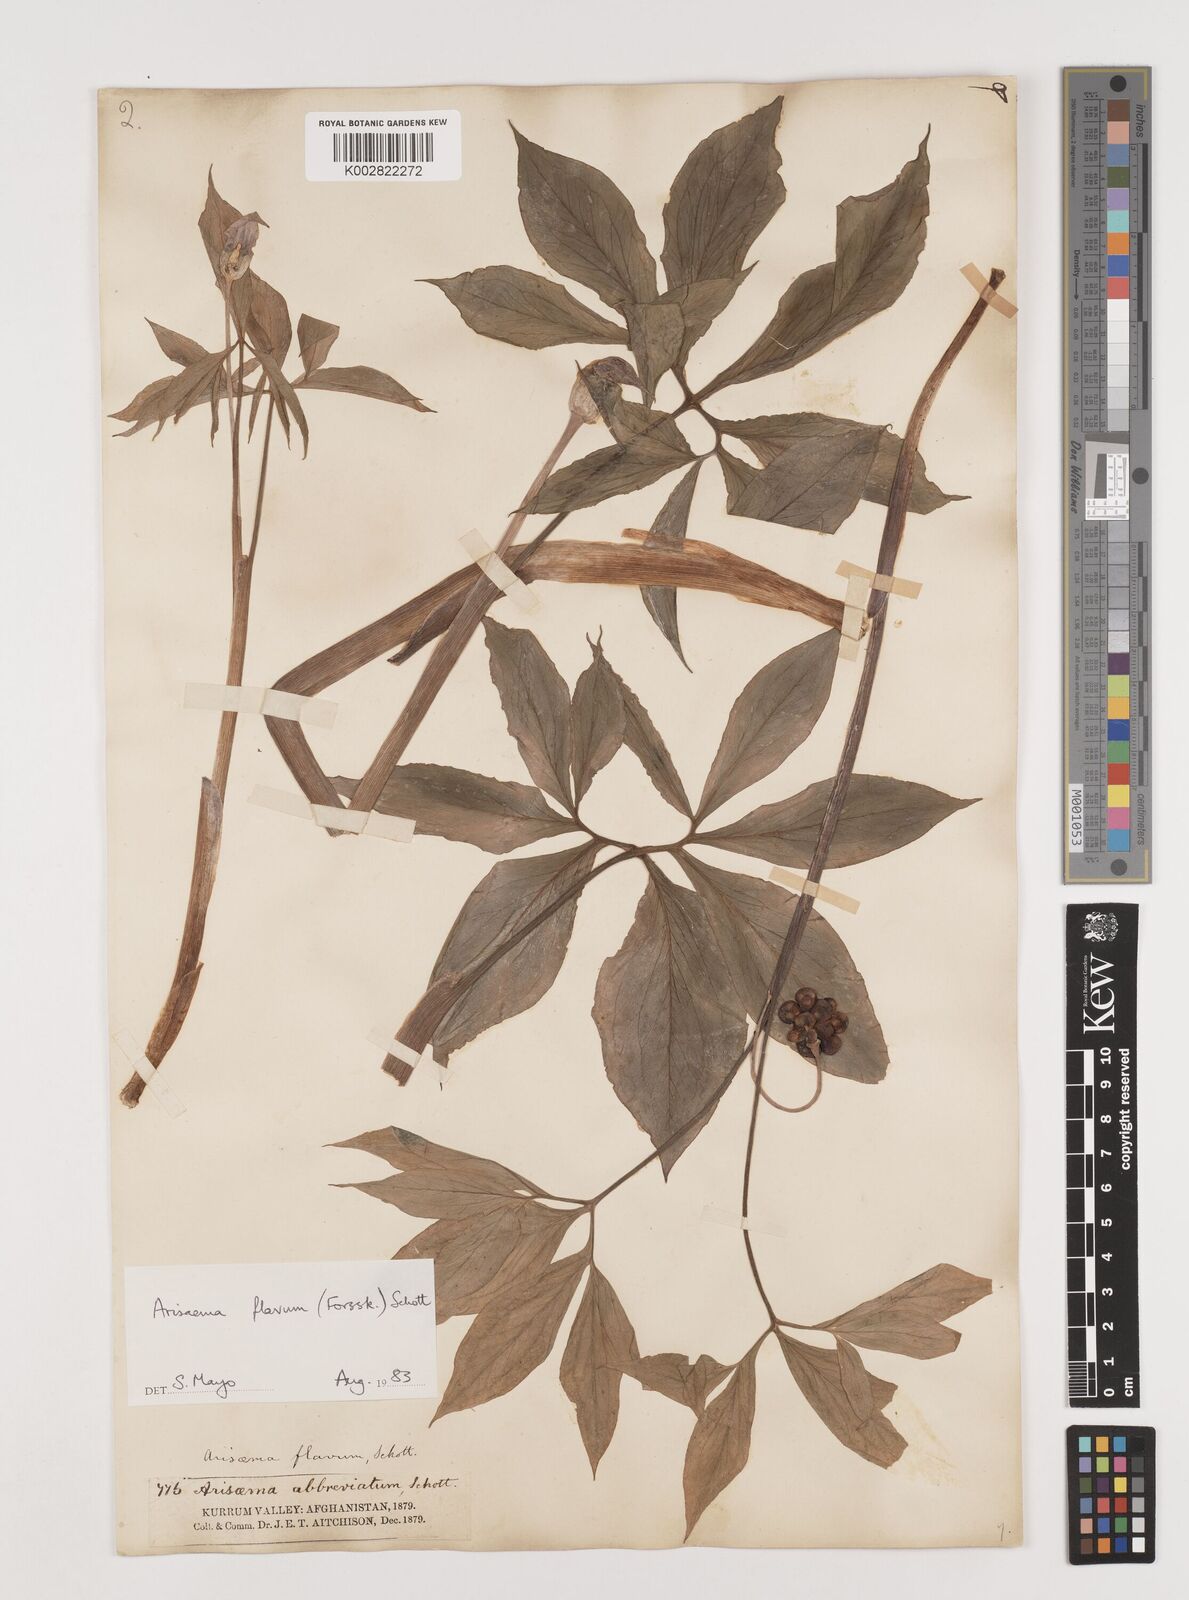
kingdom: Plantae
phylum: Tracheophyta
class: Liliopsida
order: Alismatales
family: Araceae
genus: Arisaema
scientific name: Arisaema flavum
